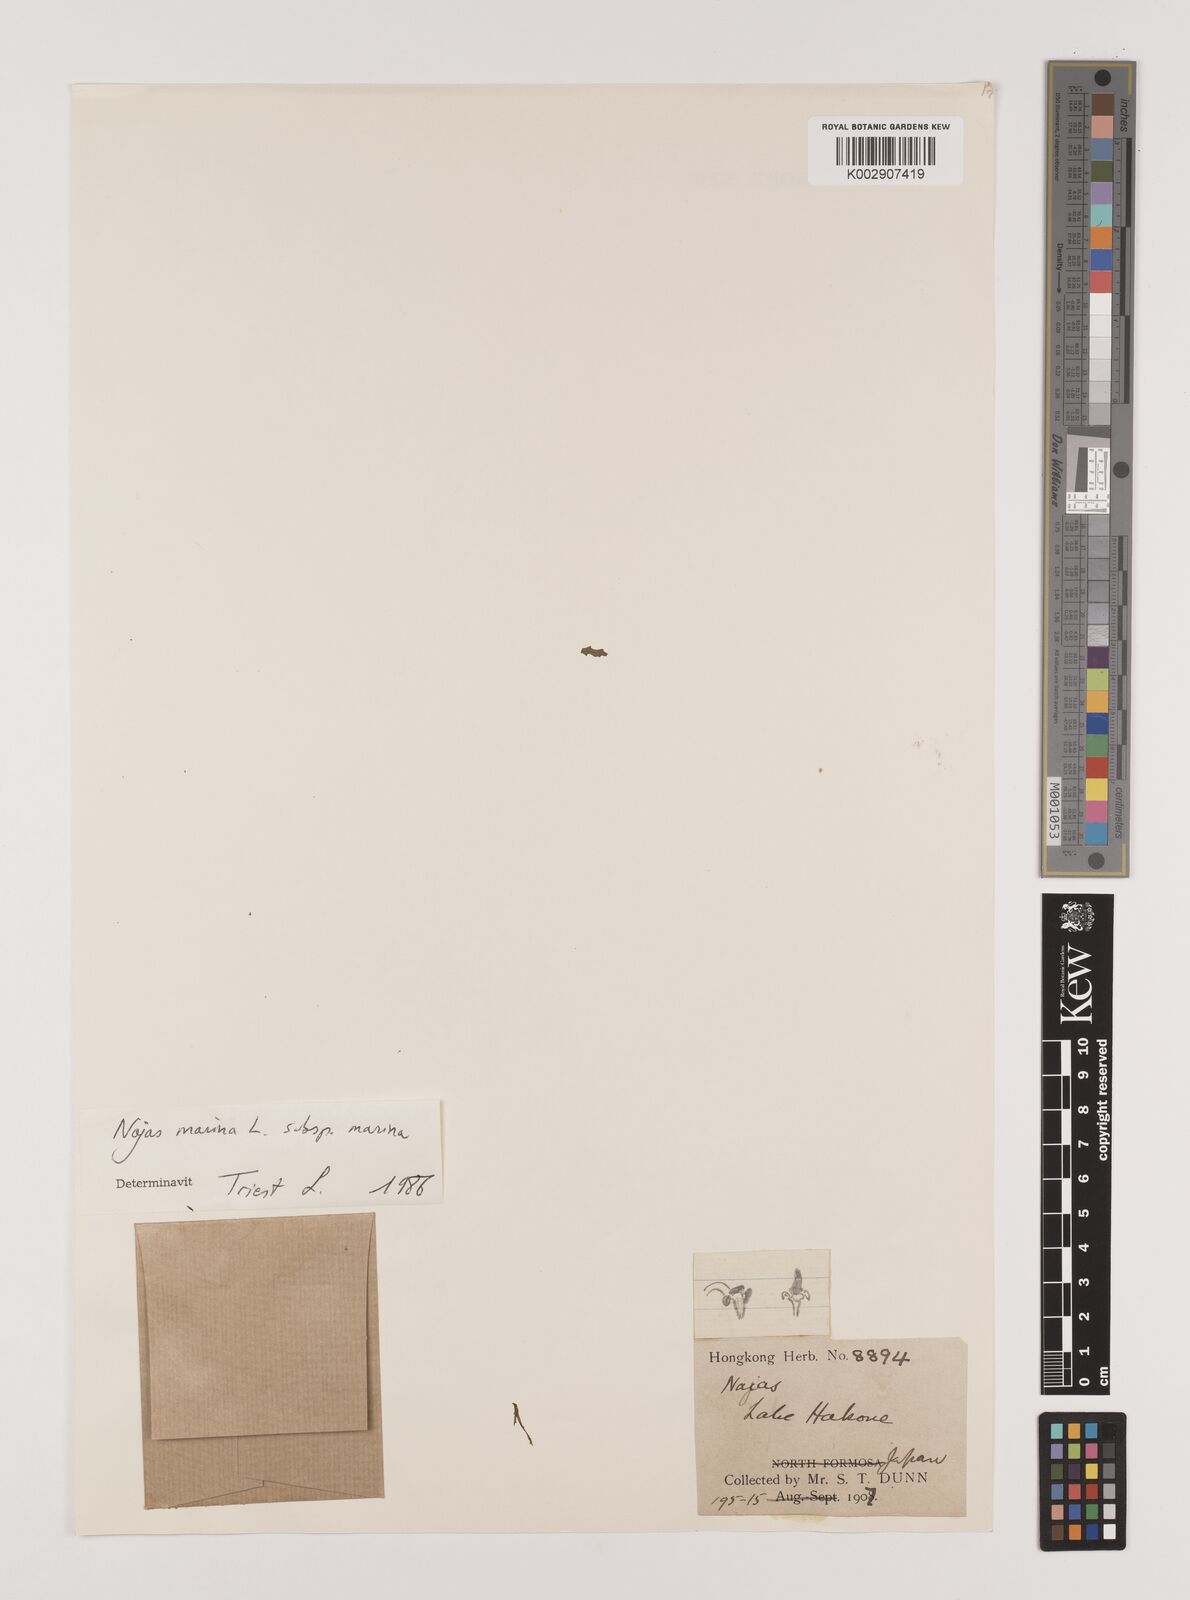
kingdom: Plantae
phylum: Tracheophyta
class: Liliopsida
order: Alismatales
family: Hydrocharitaceae
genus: Najas
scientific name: Najas marina
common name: Holly-leaved naiad
